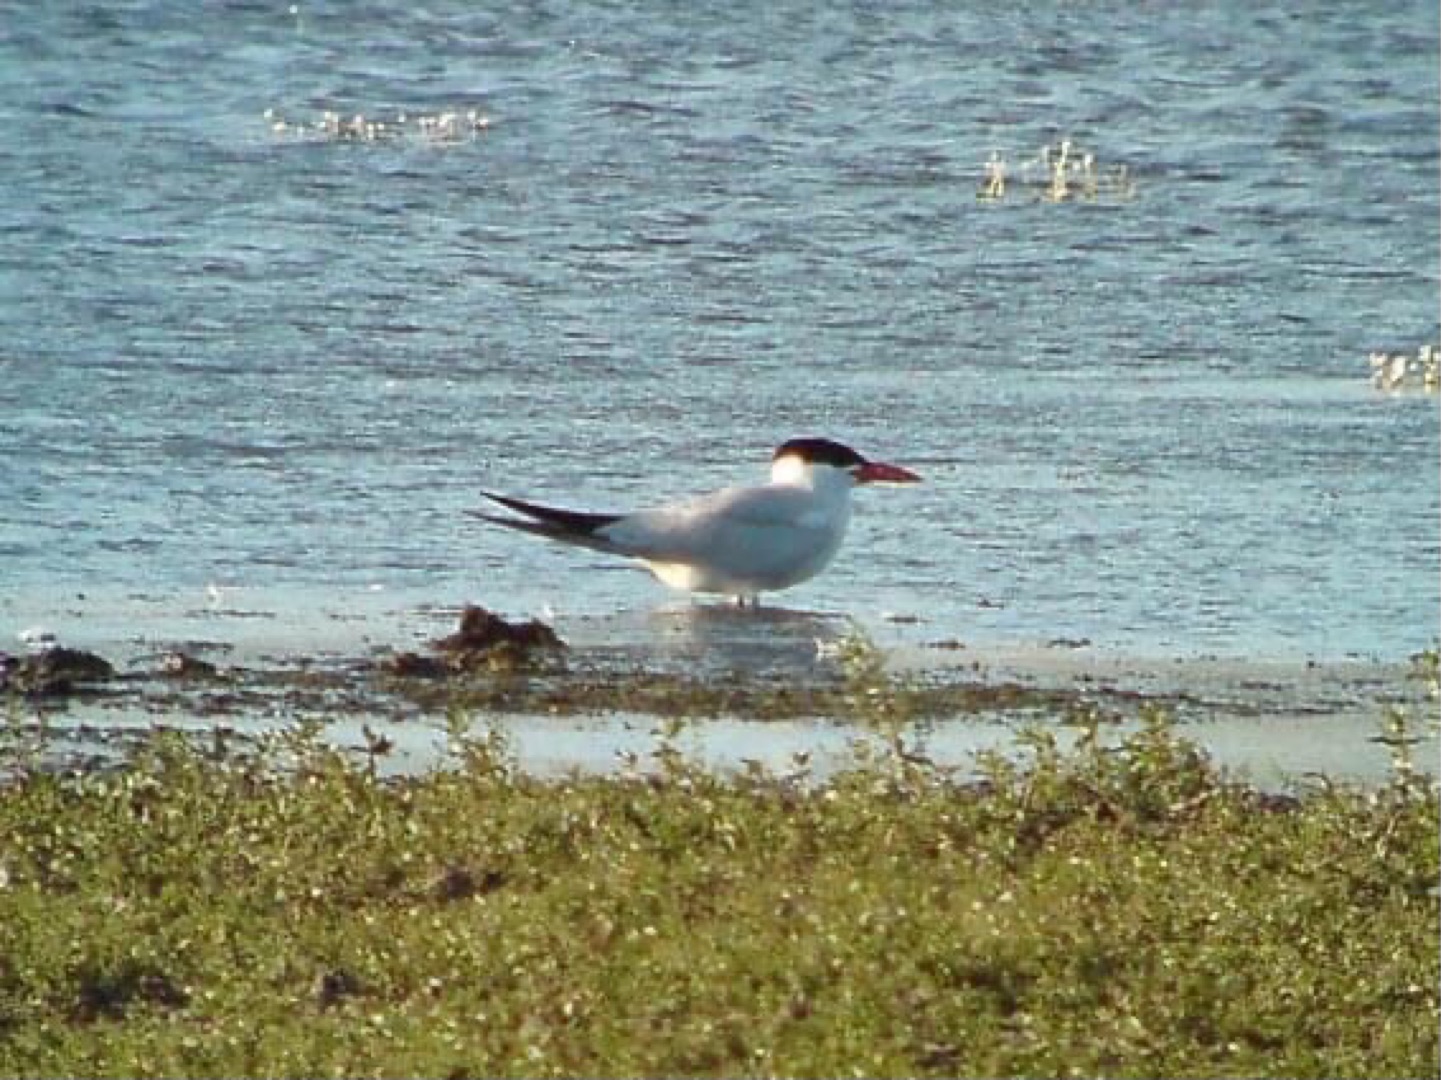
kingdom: Animalia
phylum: Chordata
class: Aves
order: Charadriiformes
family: Laridae
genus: Hydroprogne
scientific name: Hydroprogne caspia
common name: Rovterne
